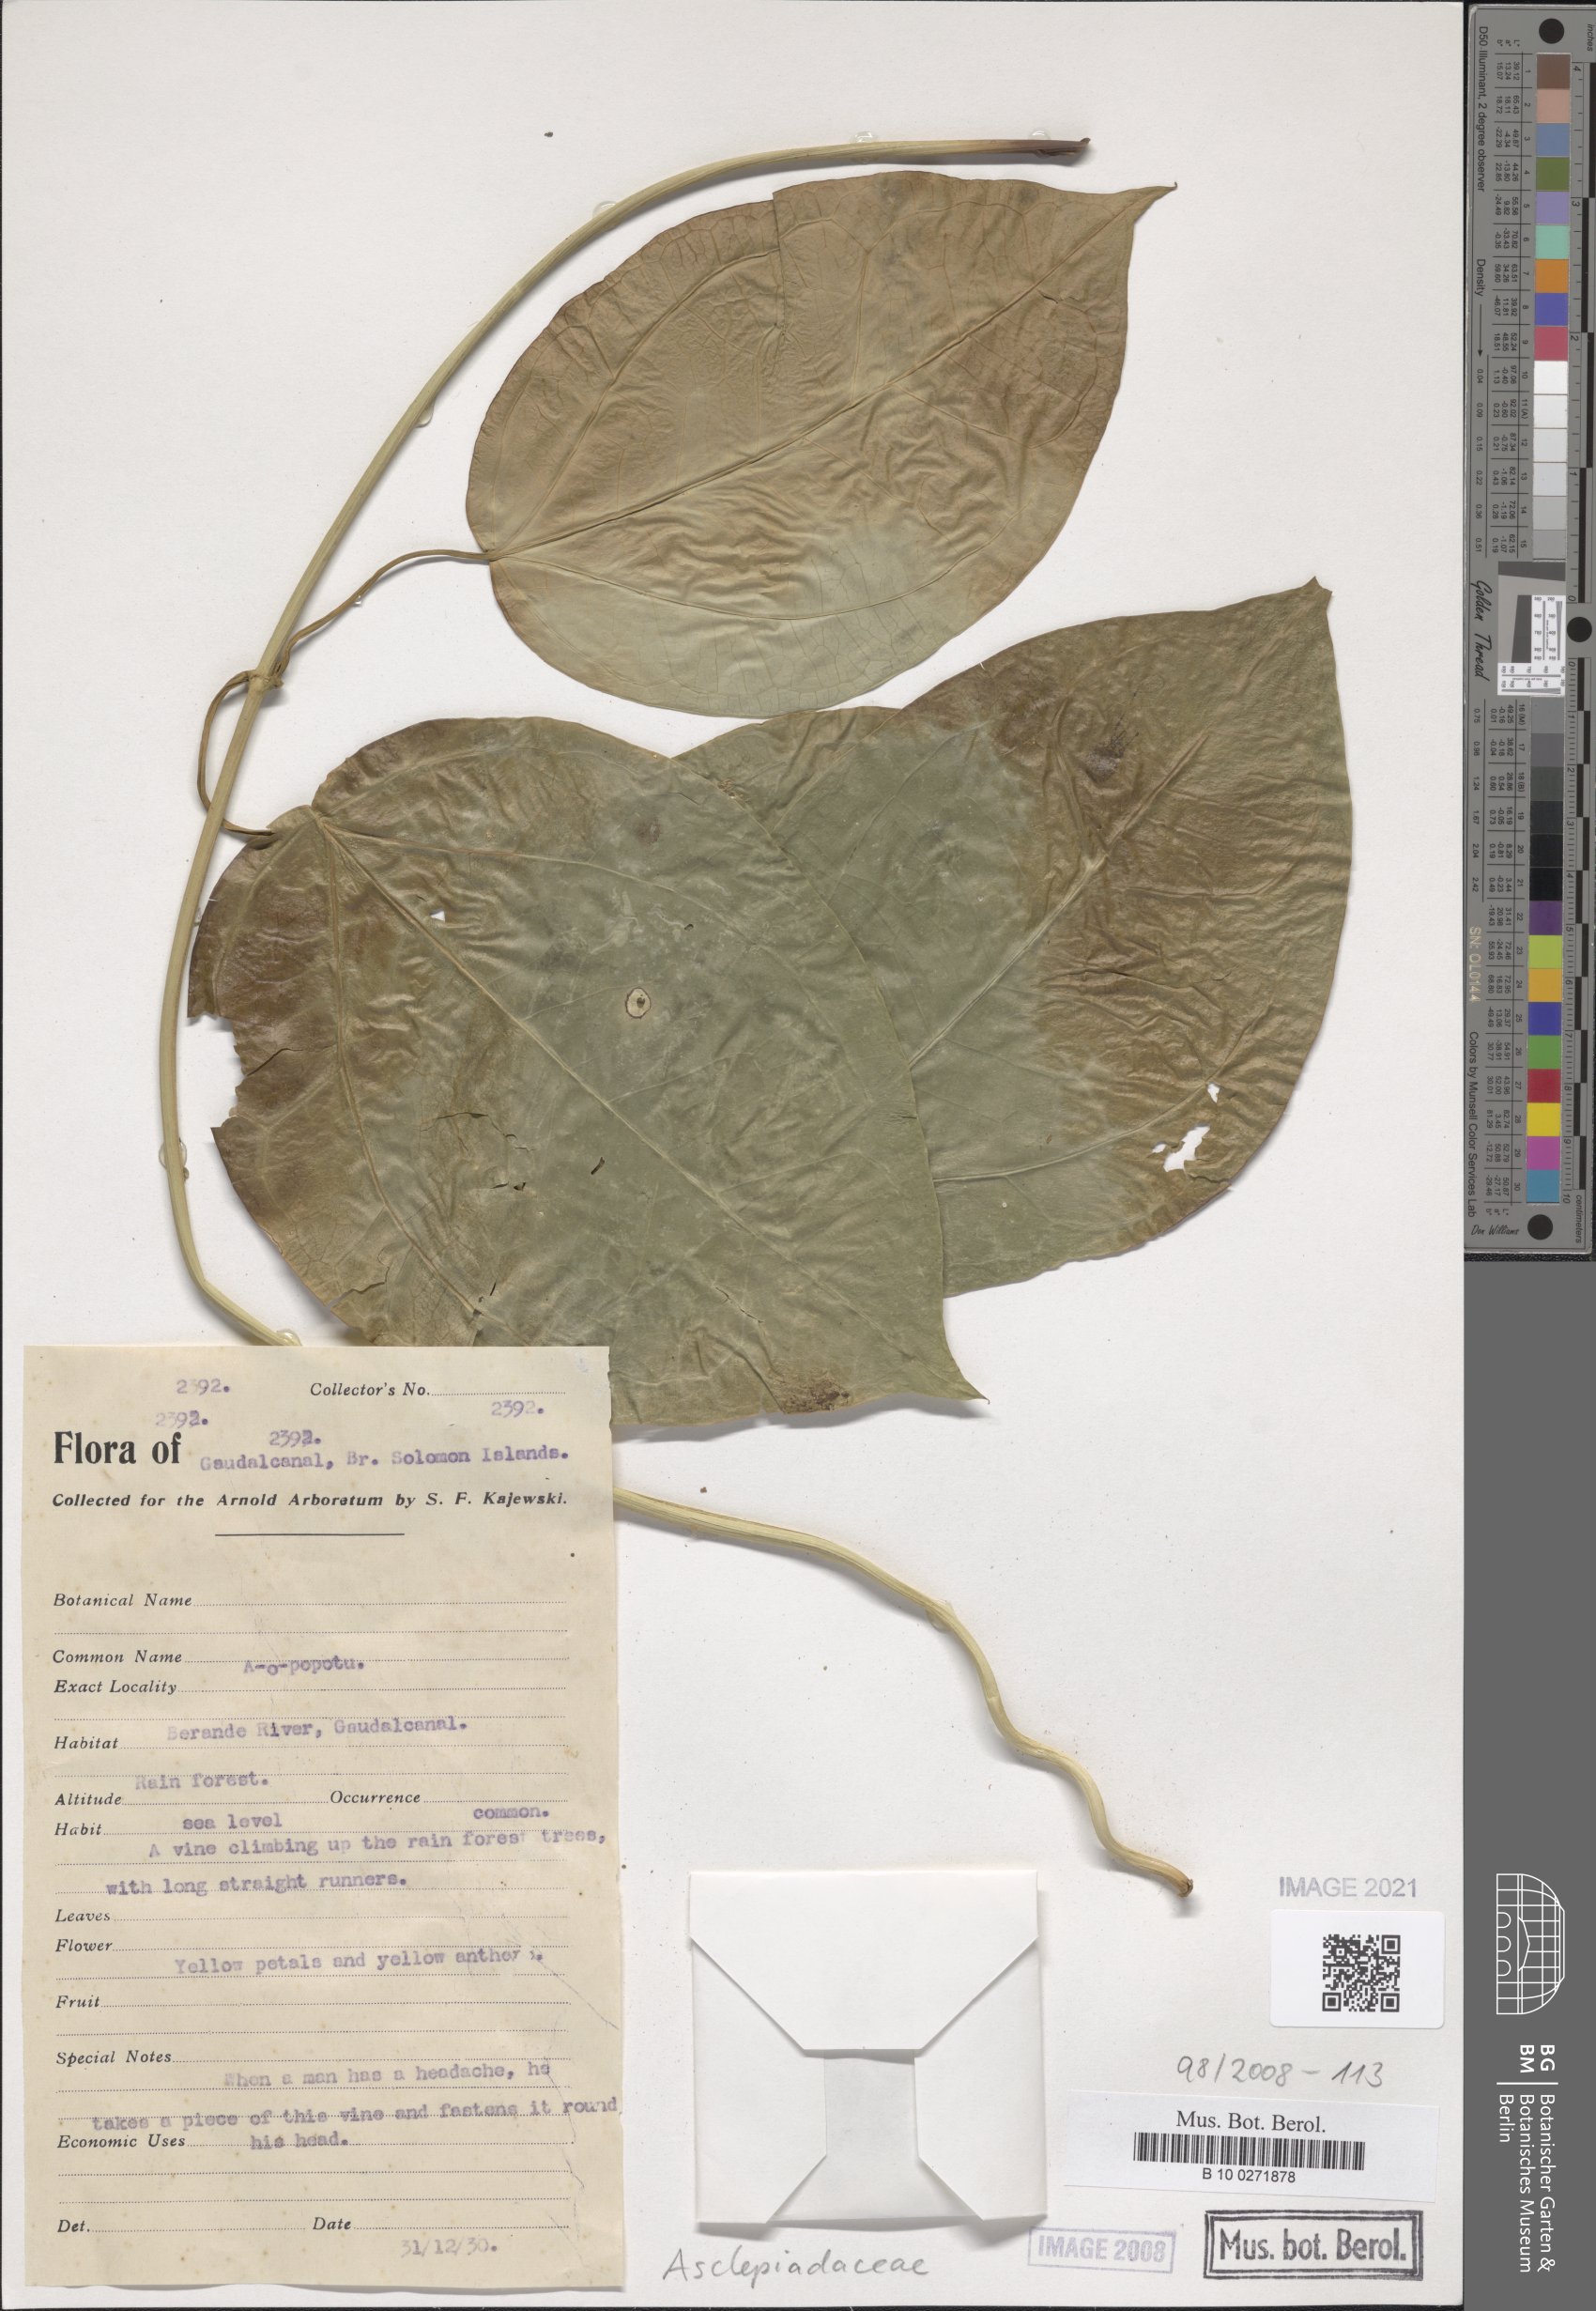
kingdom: Plantae
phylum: Tracheophyta
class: Magnoliopsida
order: Gentianales
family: Asclepiadaceae
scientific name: Asclepiadaceae
